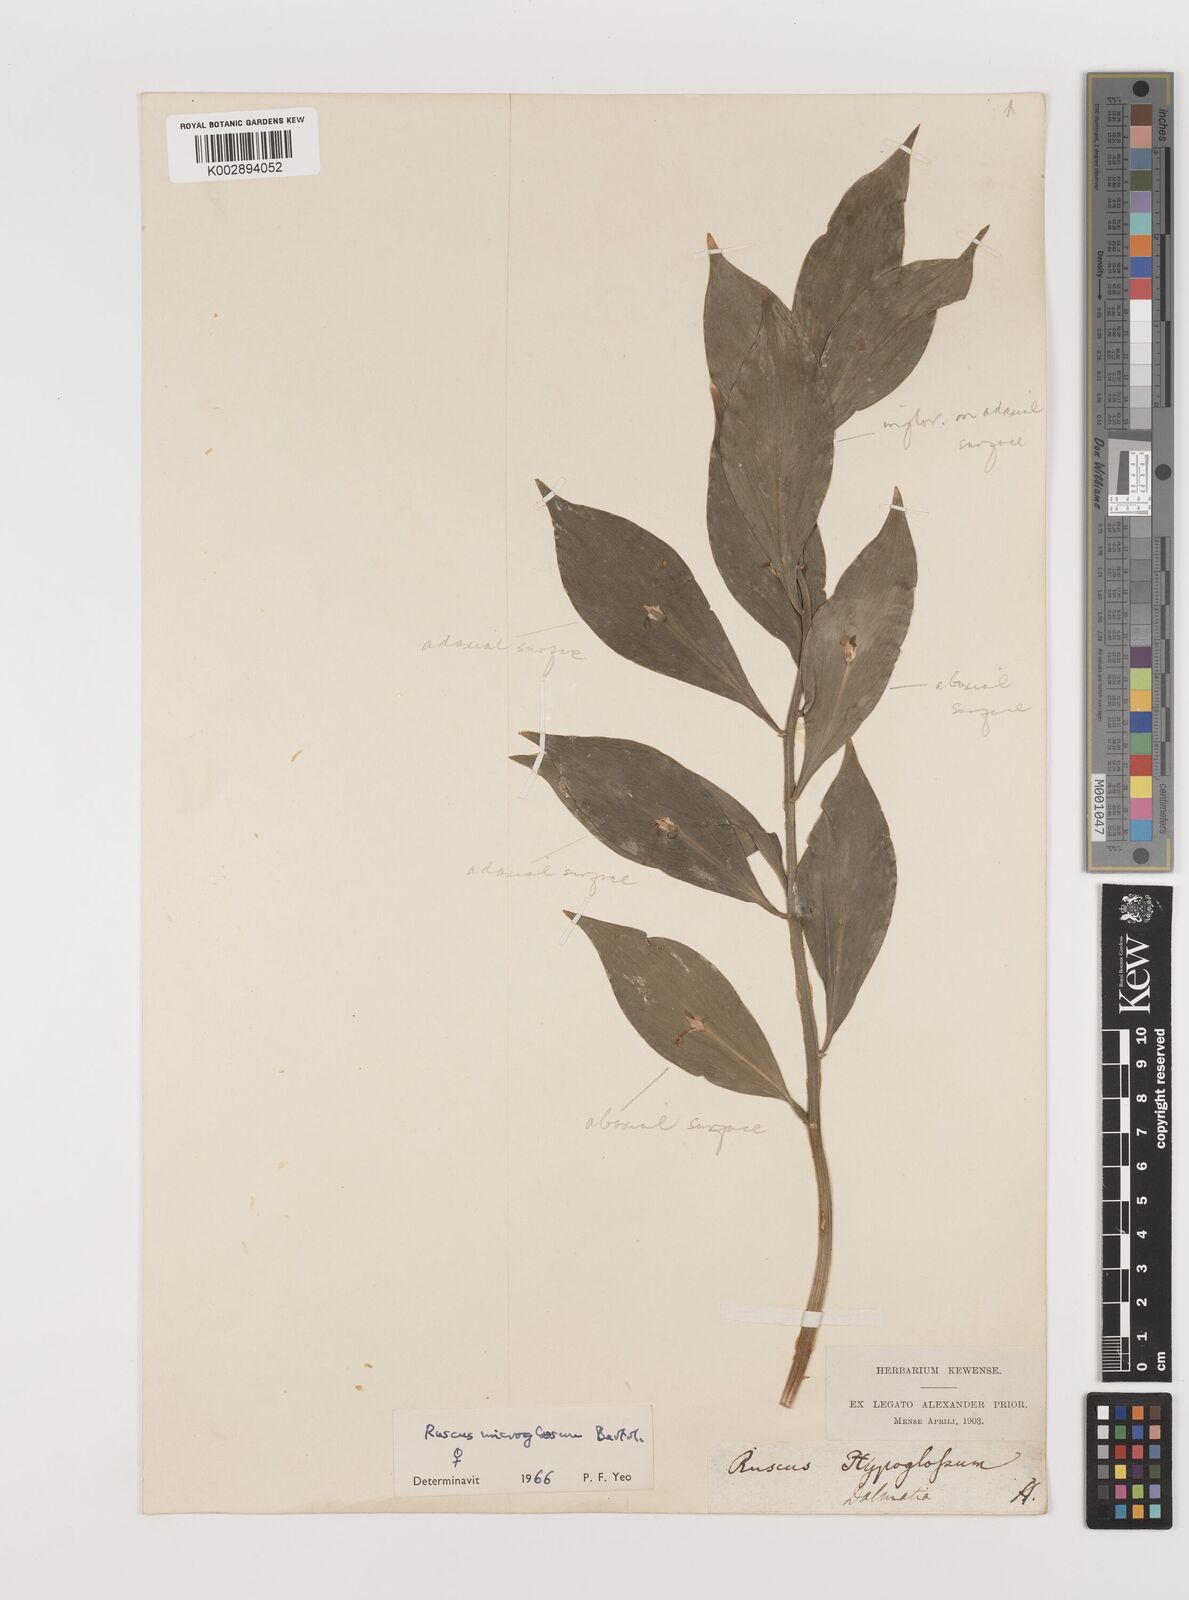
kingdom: Plantae
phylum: Tracheophyta
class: Liliopsida
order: Asparagales
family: Asparagaceae
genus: Ruscus
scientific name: Ruscus microglossus
